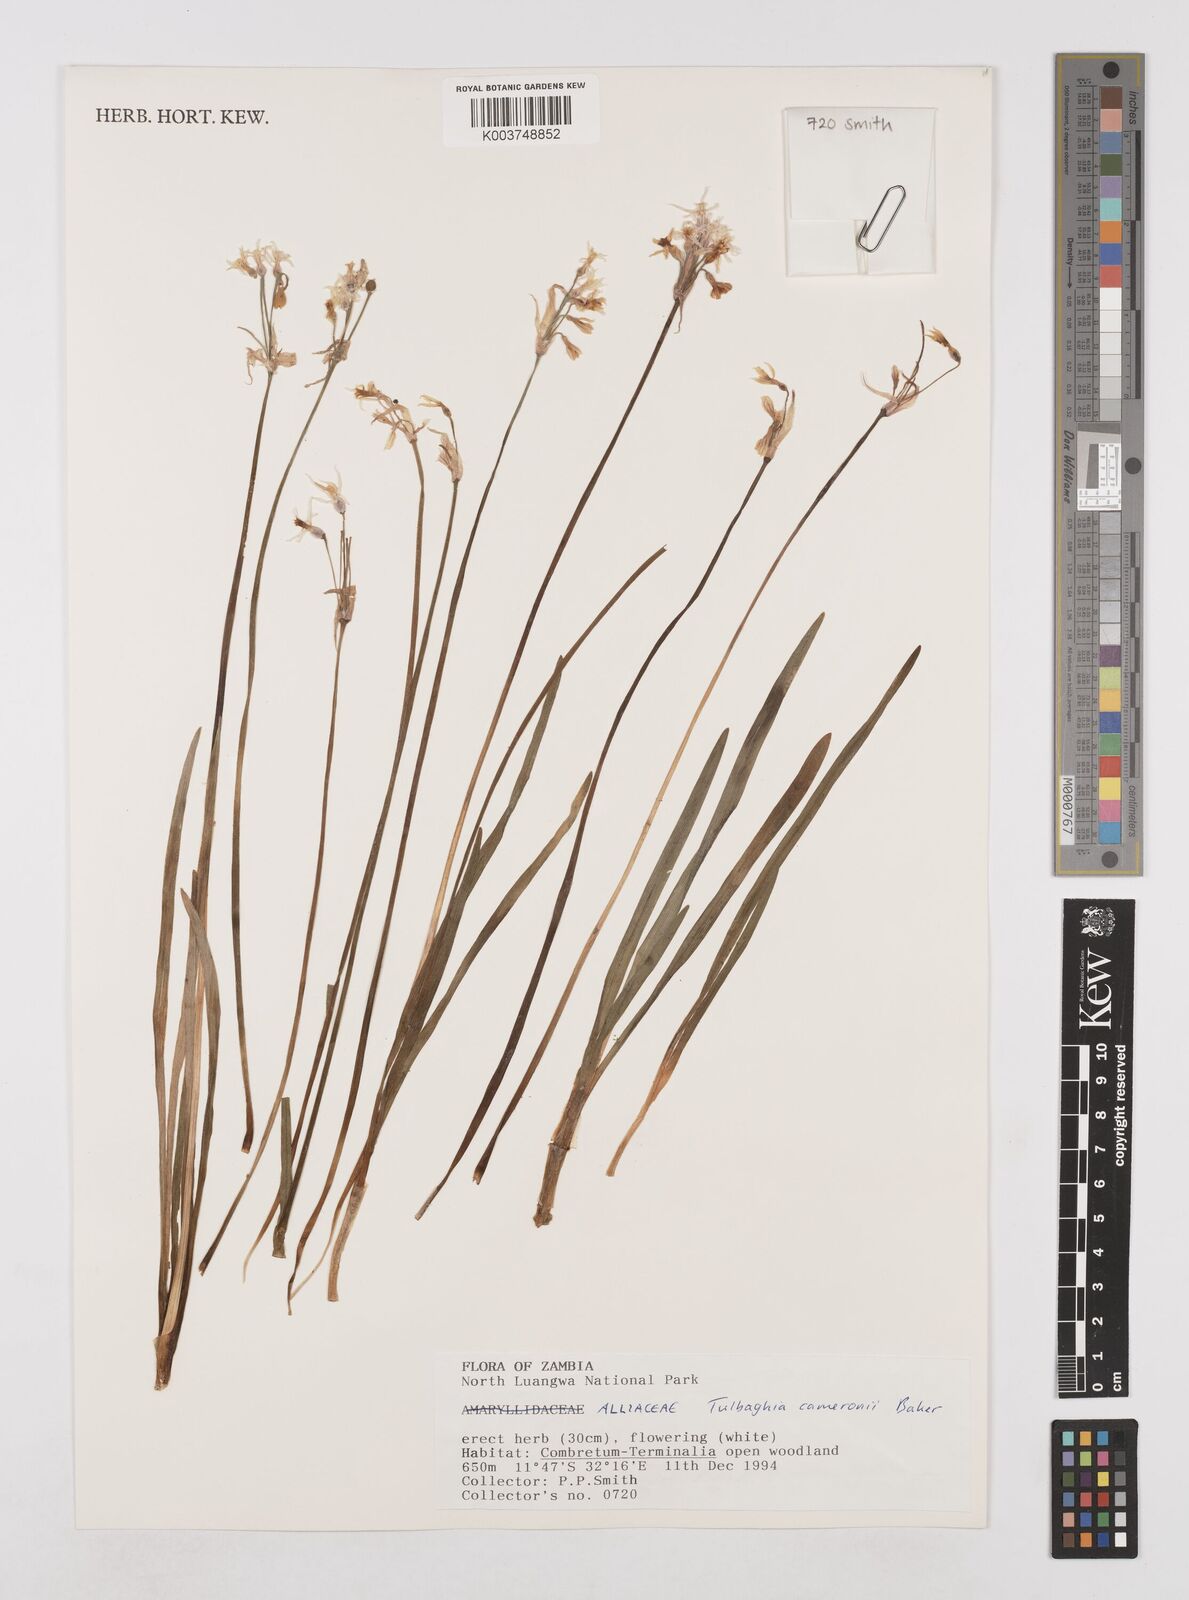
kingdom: Plantae
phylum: Tracheophyta
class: Liliopsida
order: Asparagales
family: Amaryllidaceae
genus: Tulbaghia
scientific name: Tulbaghia cameronii
